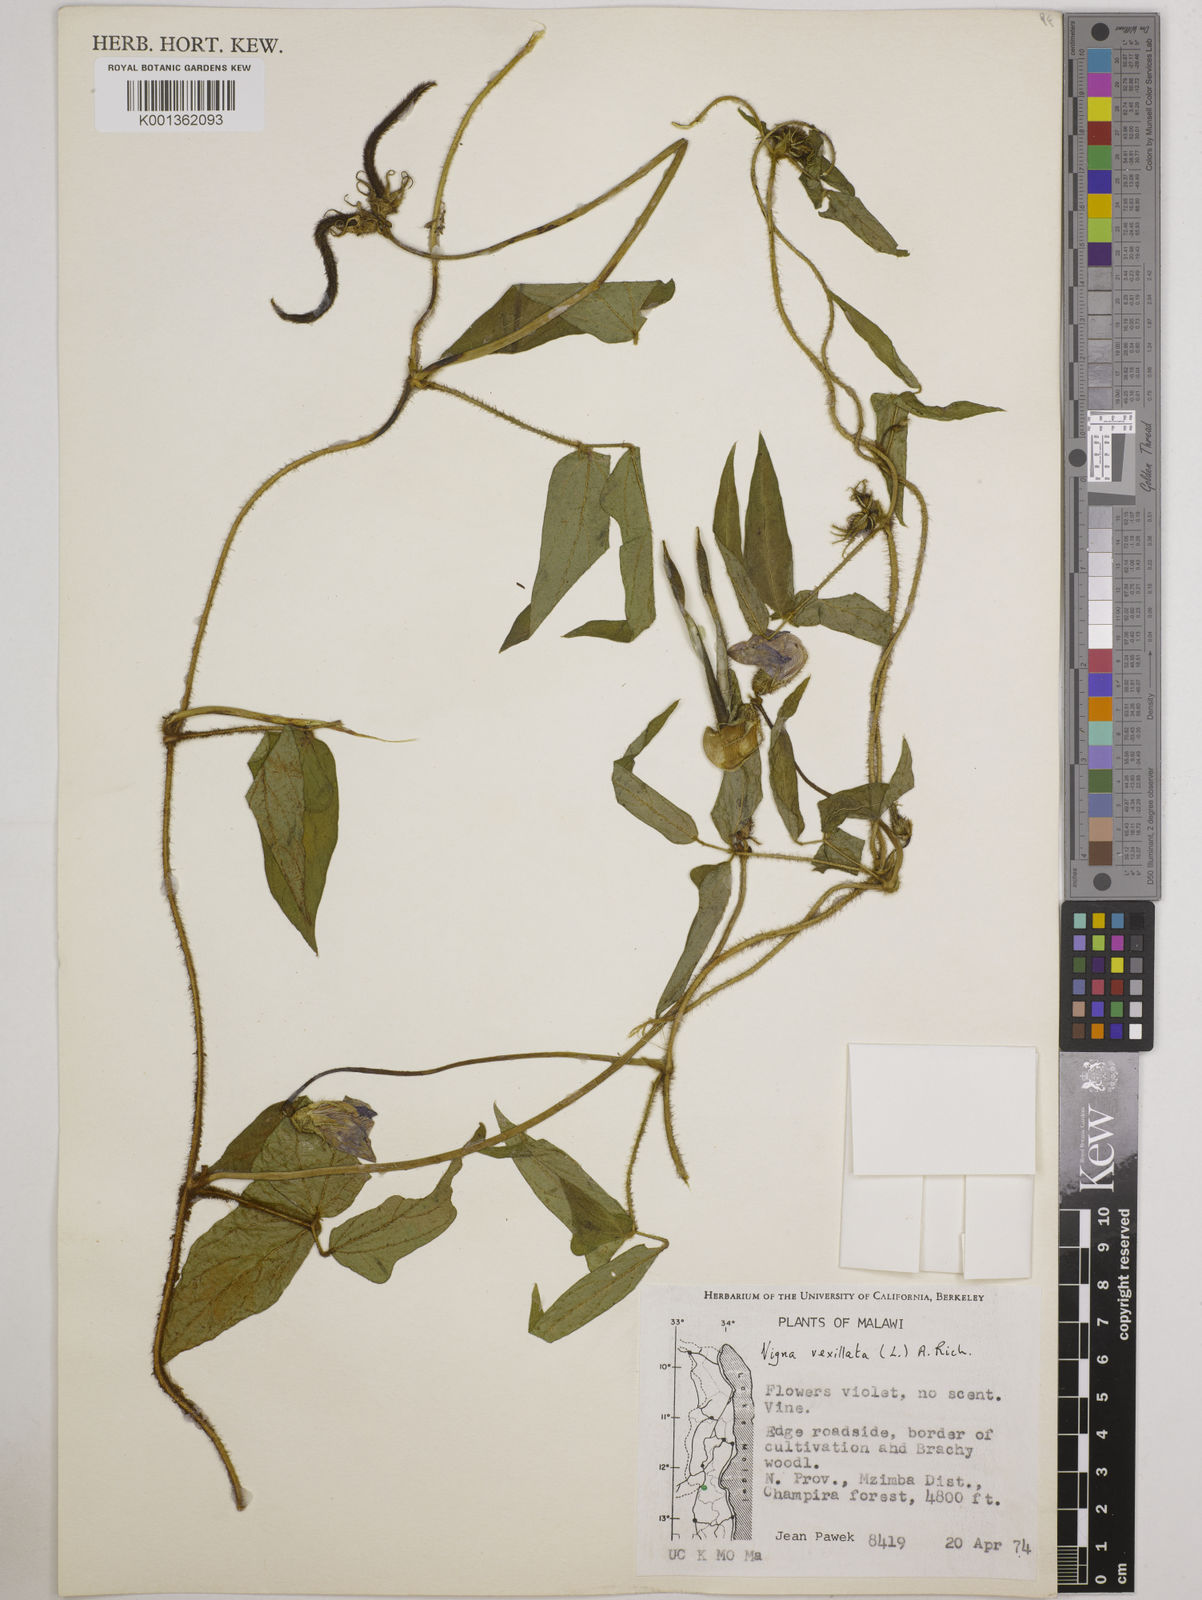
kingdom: Plantae
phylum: Tracheophyta
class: Magnoliopsida
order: Fabales
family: Fabaceae
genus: Vigna
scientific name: Vigna vexillata
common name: Zombi pea
